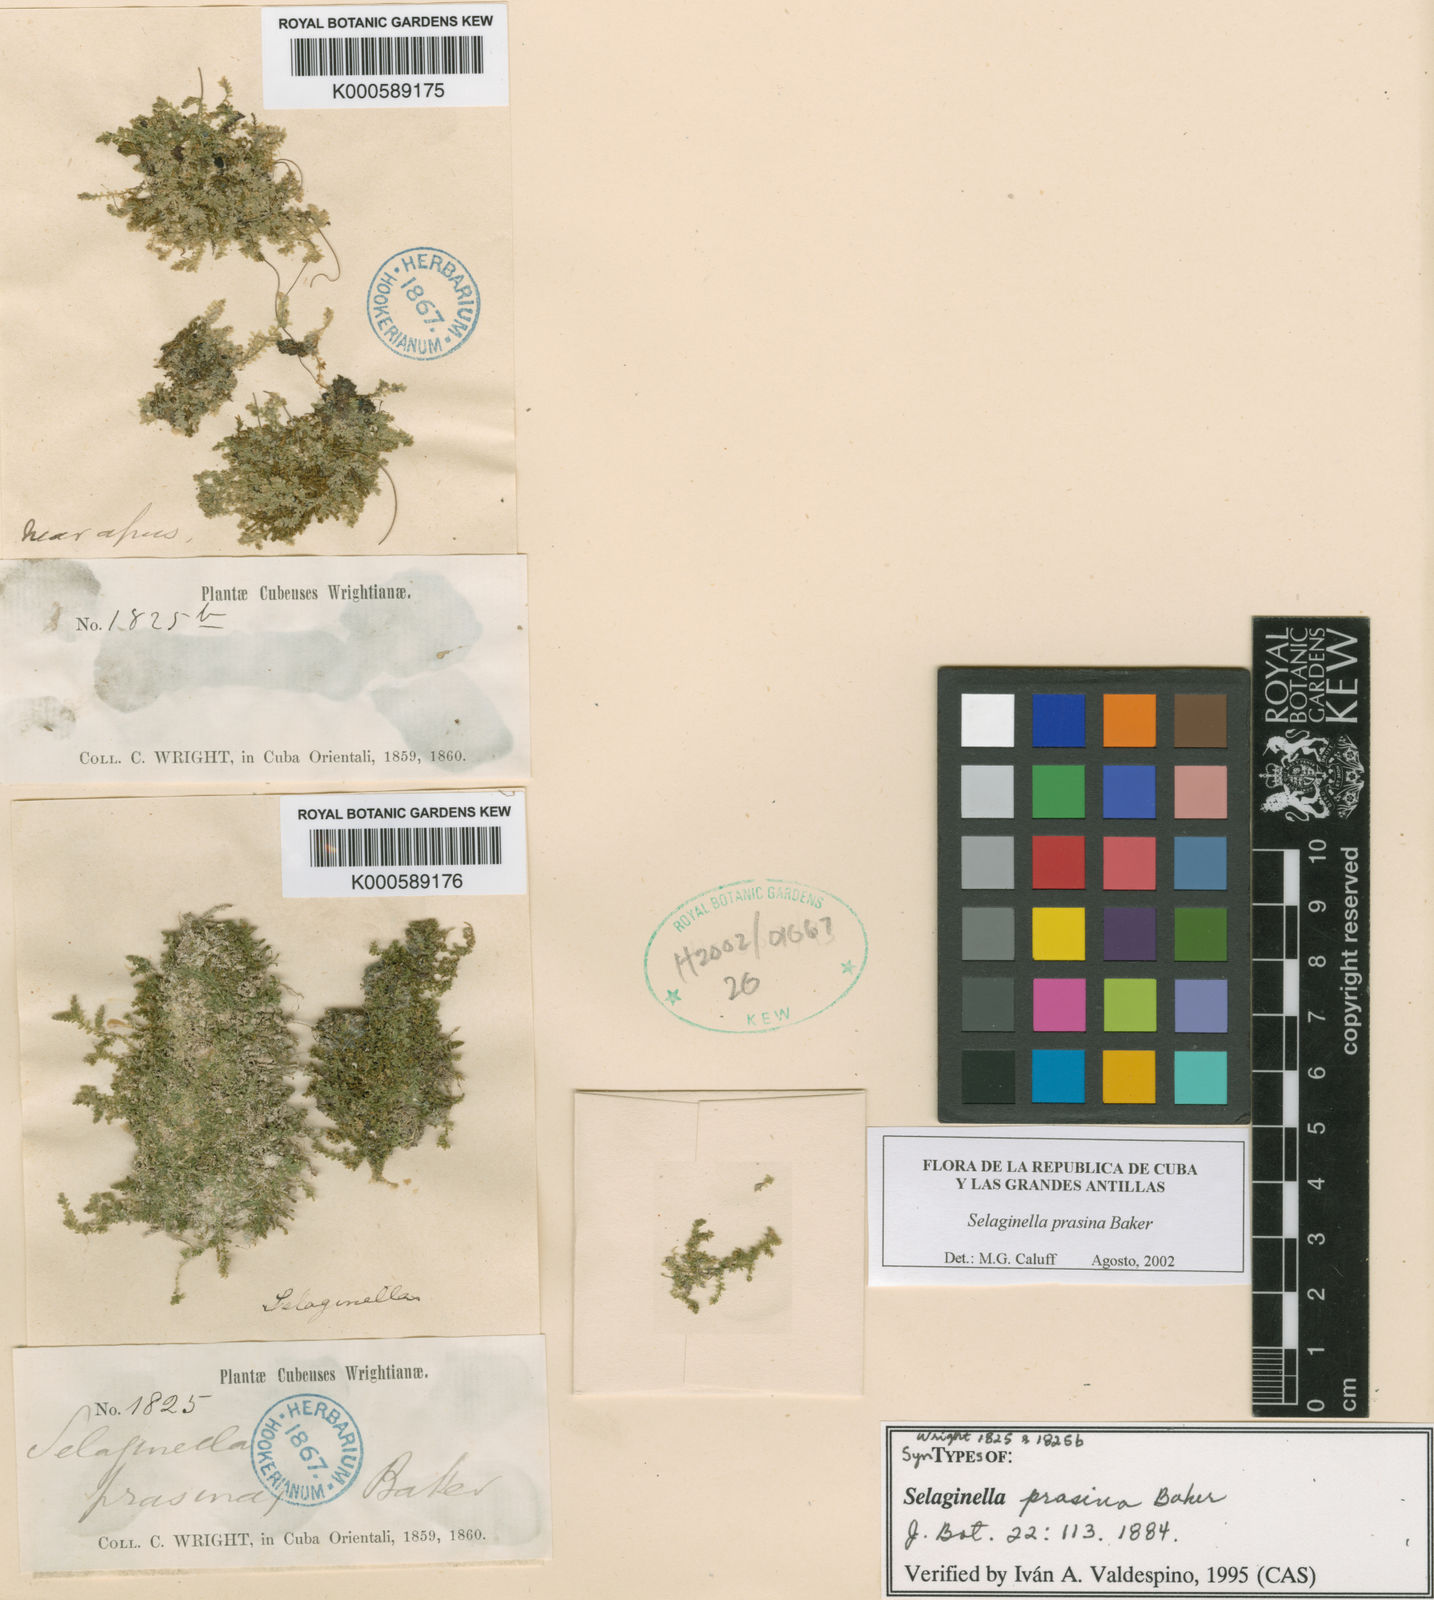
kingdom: Plantae
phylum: Tracheophyta
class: Lycopodiopsida
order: Selaginellales
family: Selaginellaceae
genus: Selaginella
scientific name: Selaginella prasina
